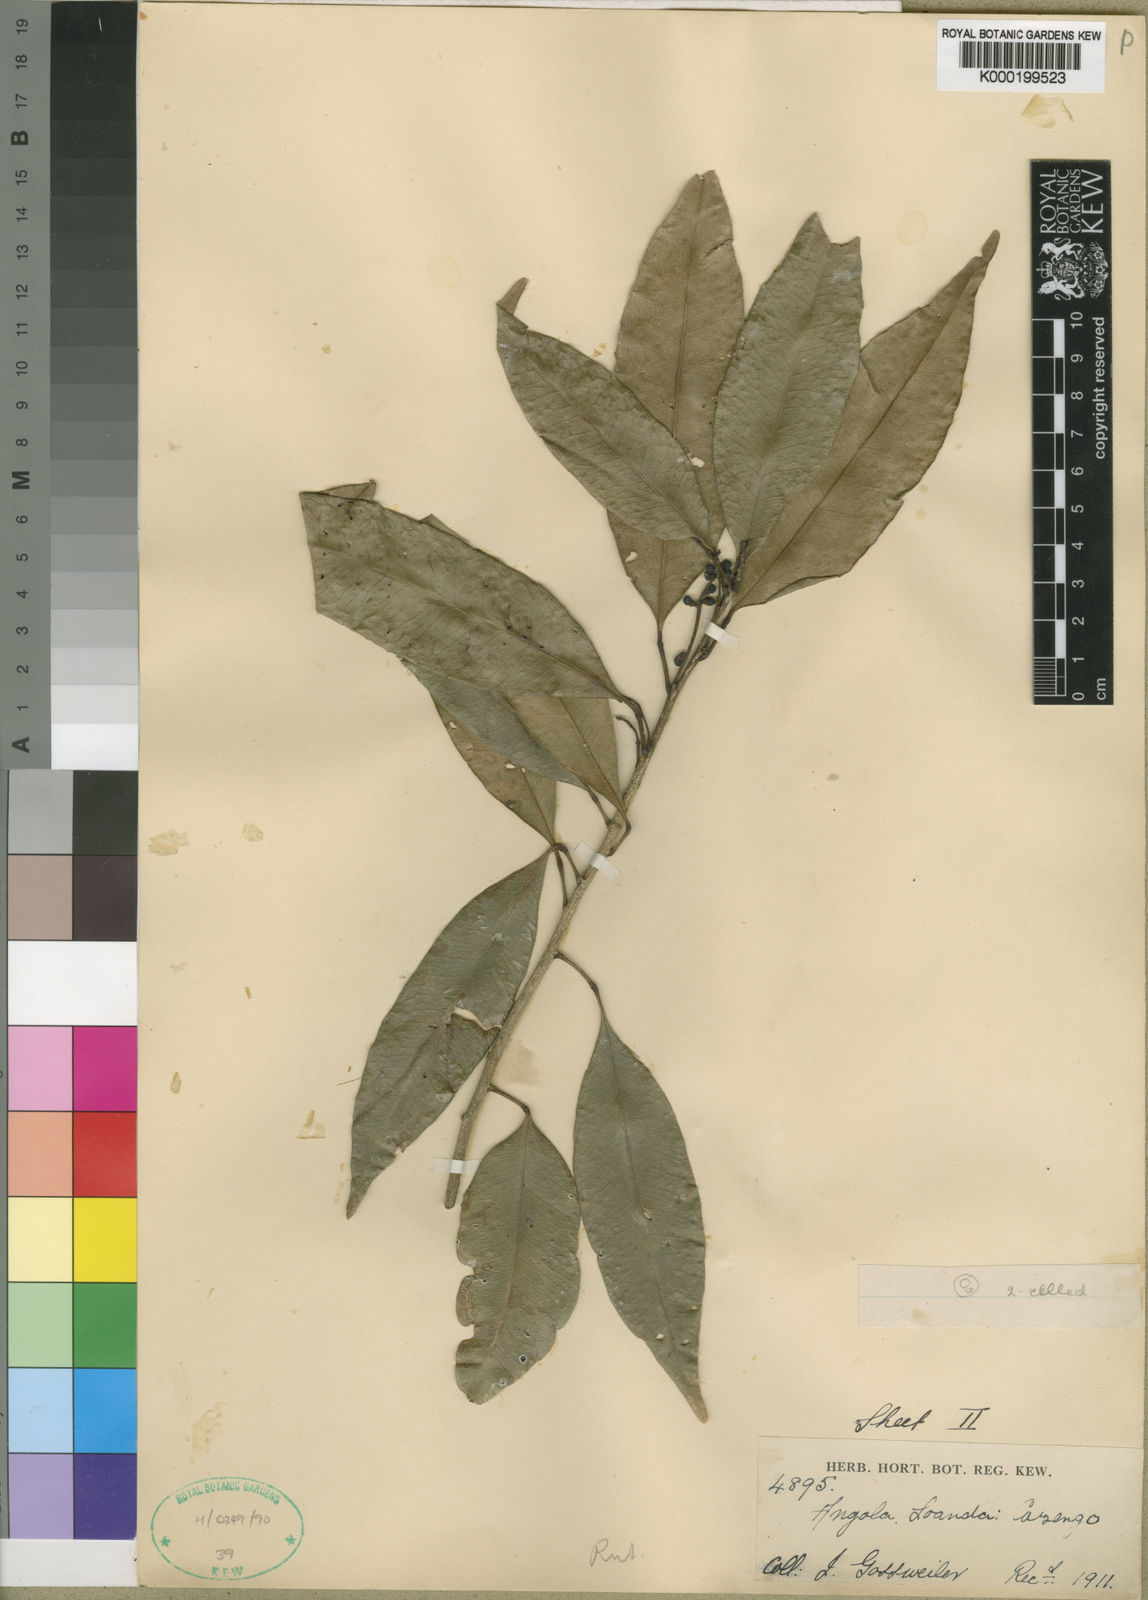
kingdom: Plantae
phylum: Tracheophyta
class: Magnoliopsida
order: Sapindales
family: Rutaceae
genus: Vepris
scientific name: Vepris welwitschii
